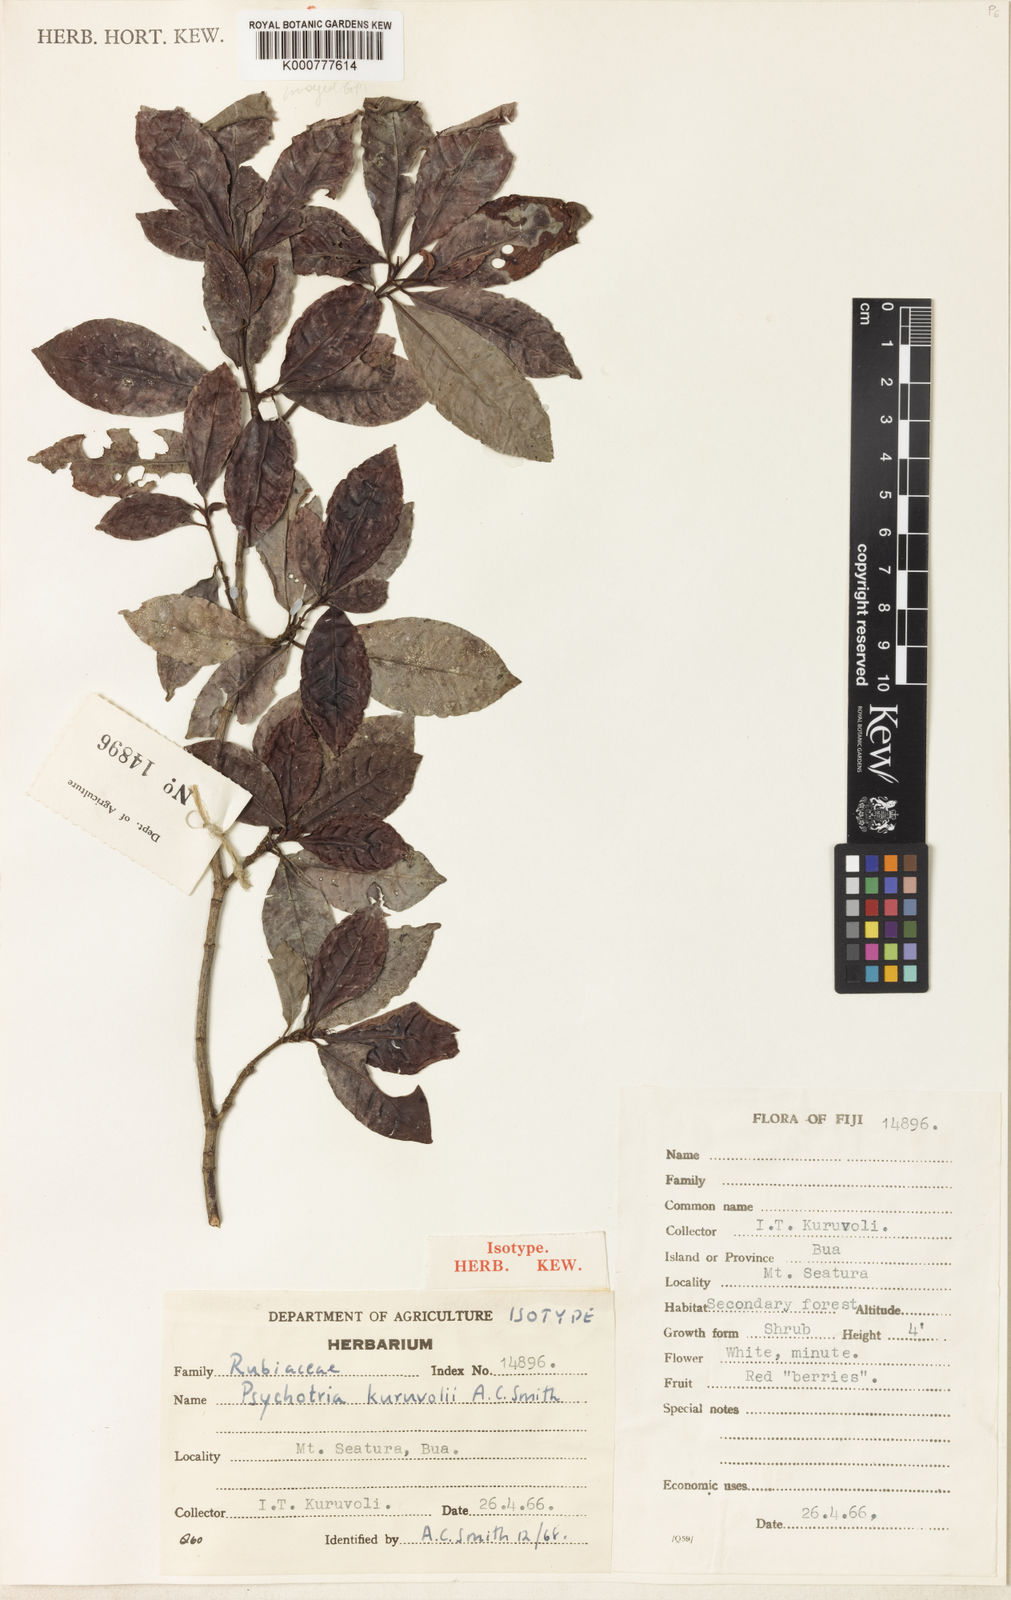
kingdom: Plantae
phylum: Tracheophyta
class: Magnoliopsida
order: Gentianales
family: Rubiaceae
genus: Psychotria
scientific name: Psychotria kuruvolii
